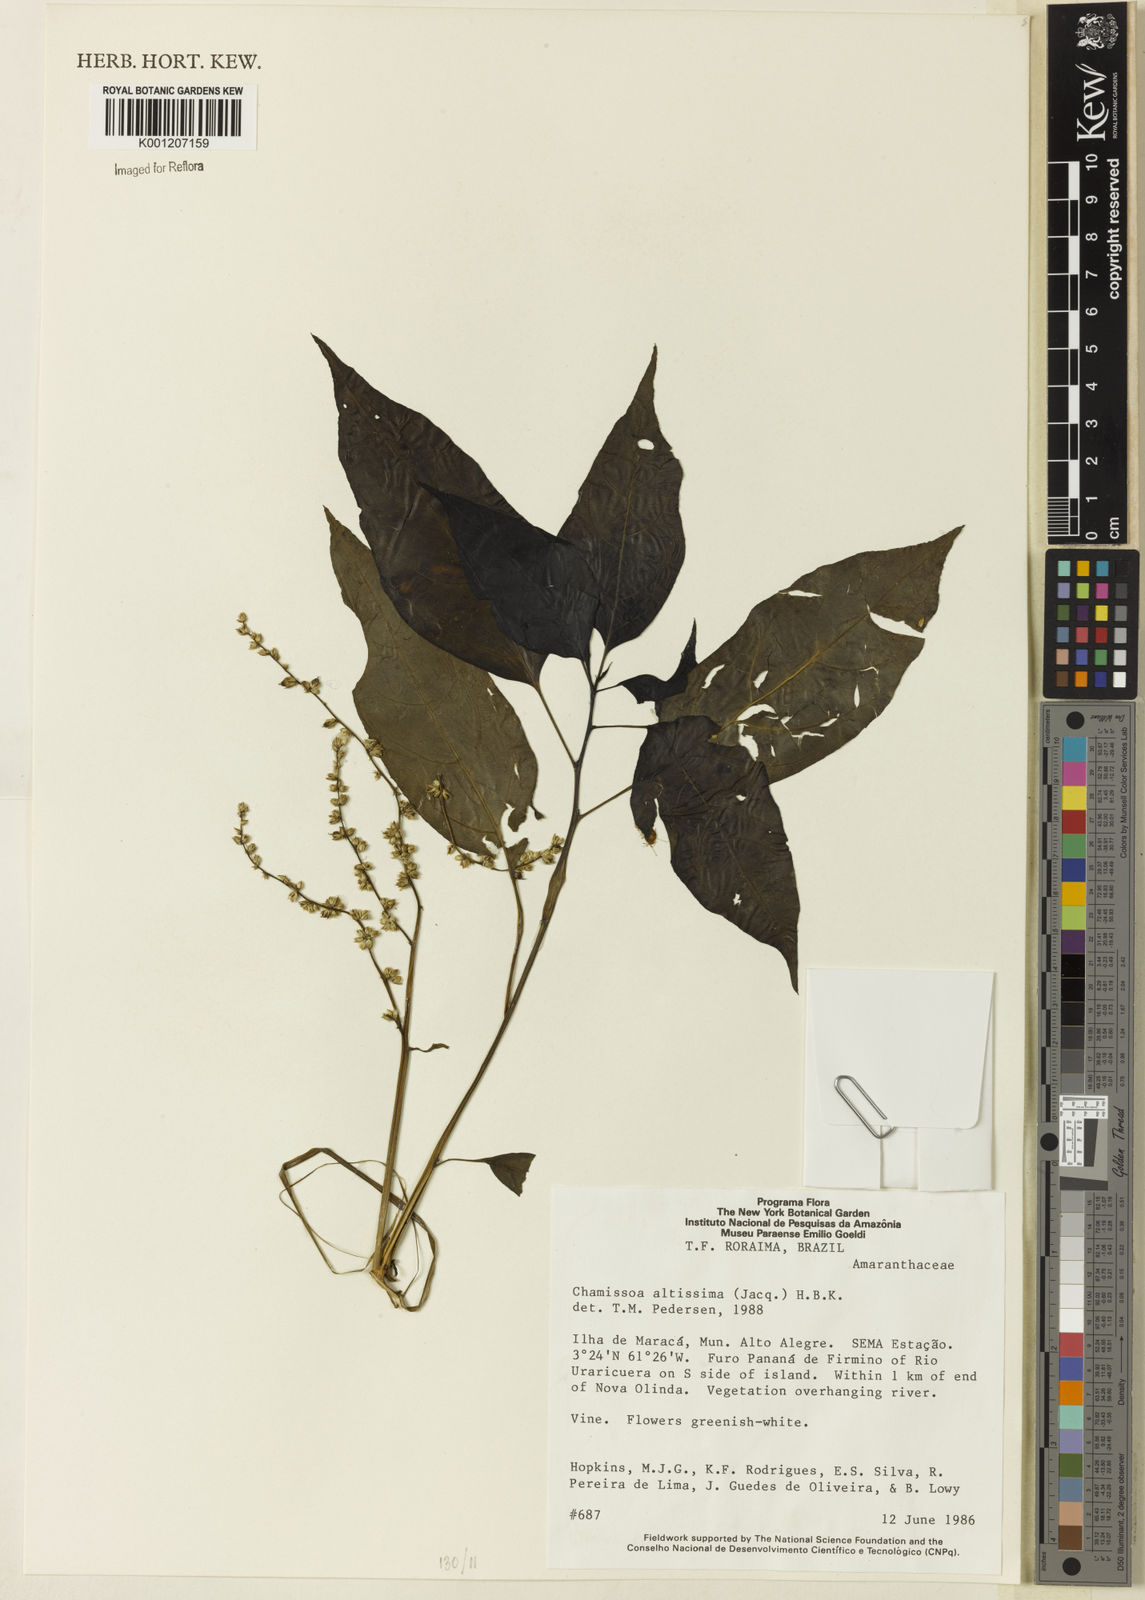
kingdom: Plantae
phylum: Tracheophyta
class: Magnoliopsida
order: Caryophyllales
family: Amaranthaceae
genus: Chamissoa
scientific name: Chamissoa altissima
